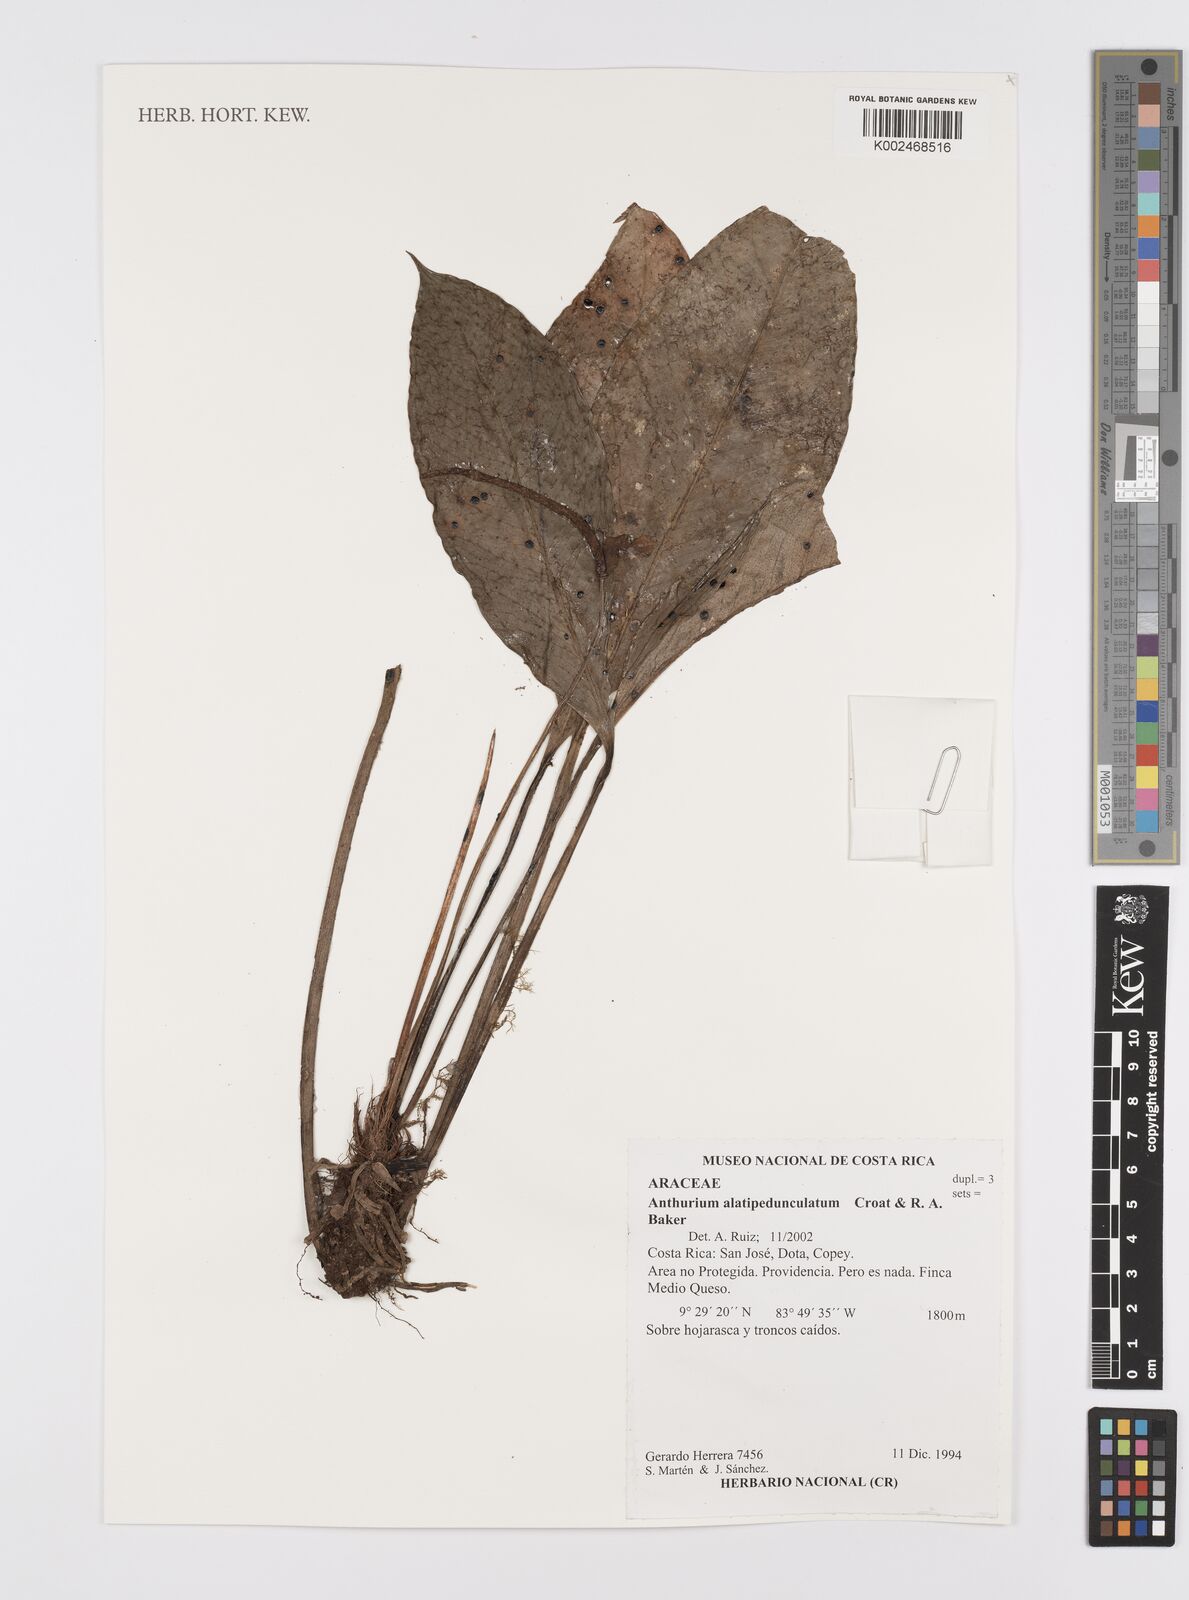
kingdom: Plantae
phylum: Tracheophyta
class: Liliopsida
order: Alismatales
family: Araceae
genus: Anthurium
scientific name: Anthurium alatipedunculatum
